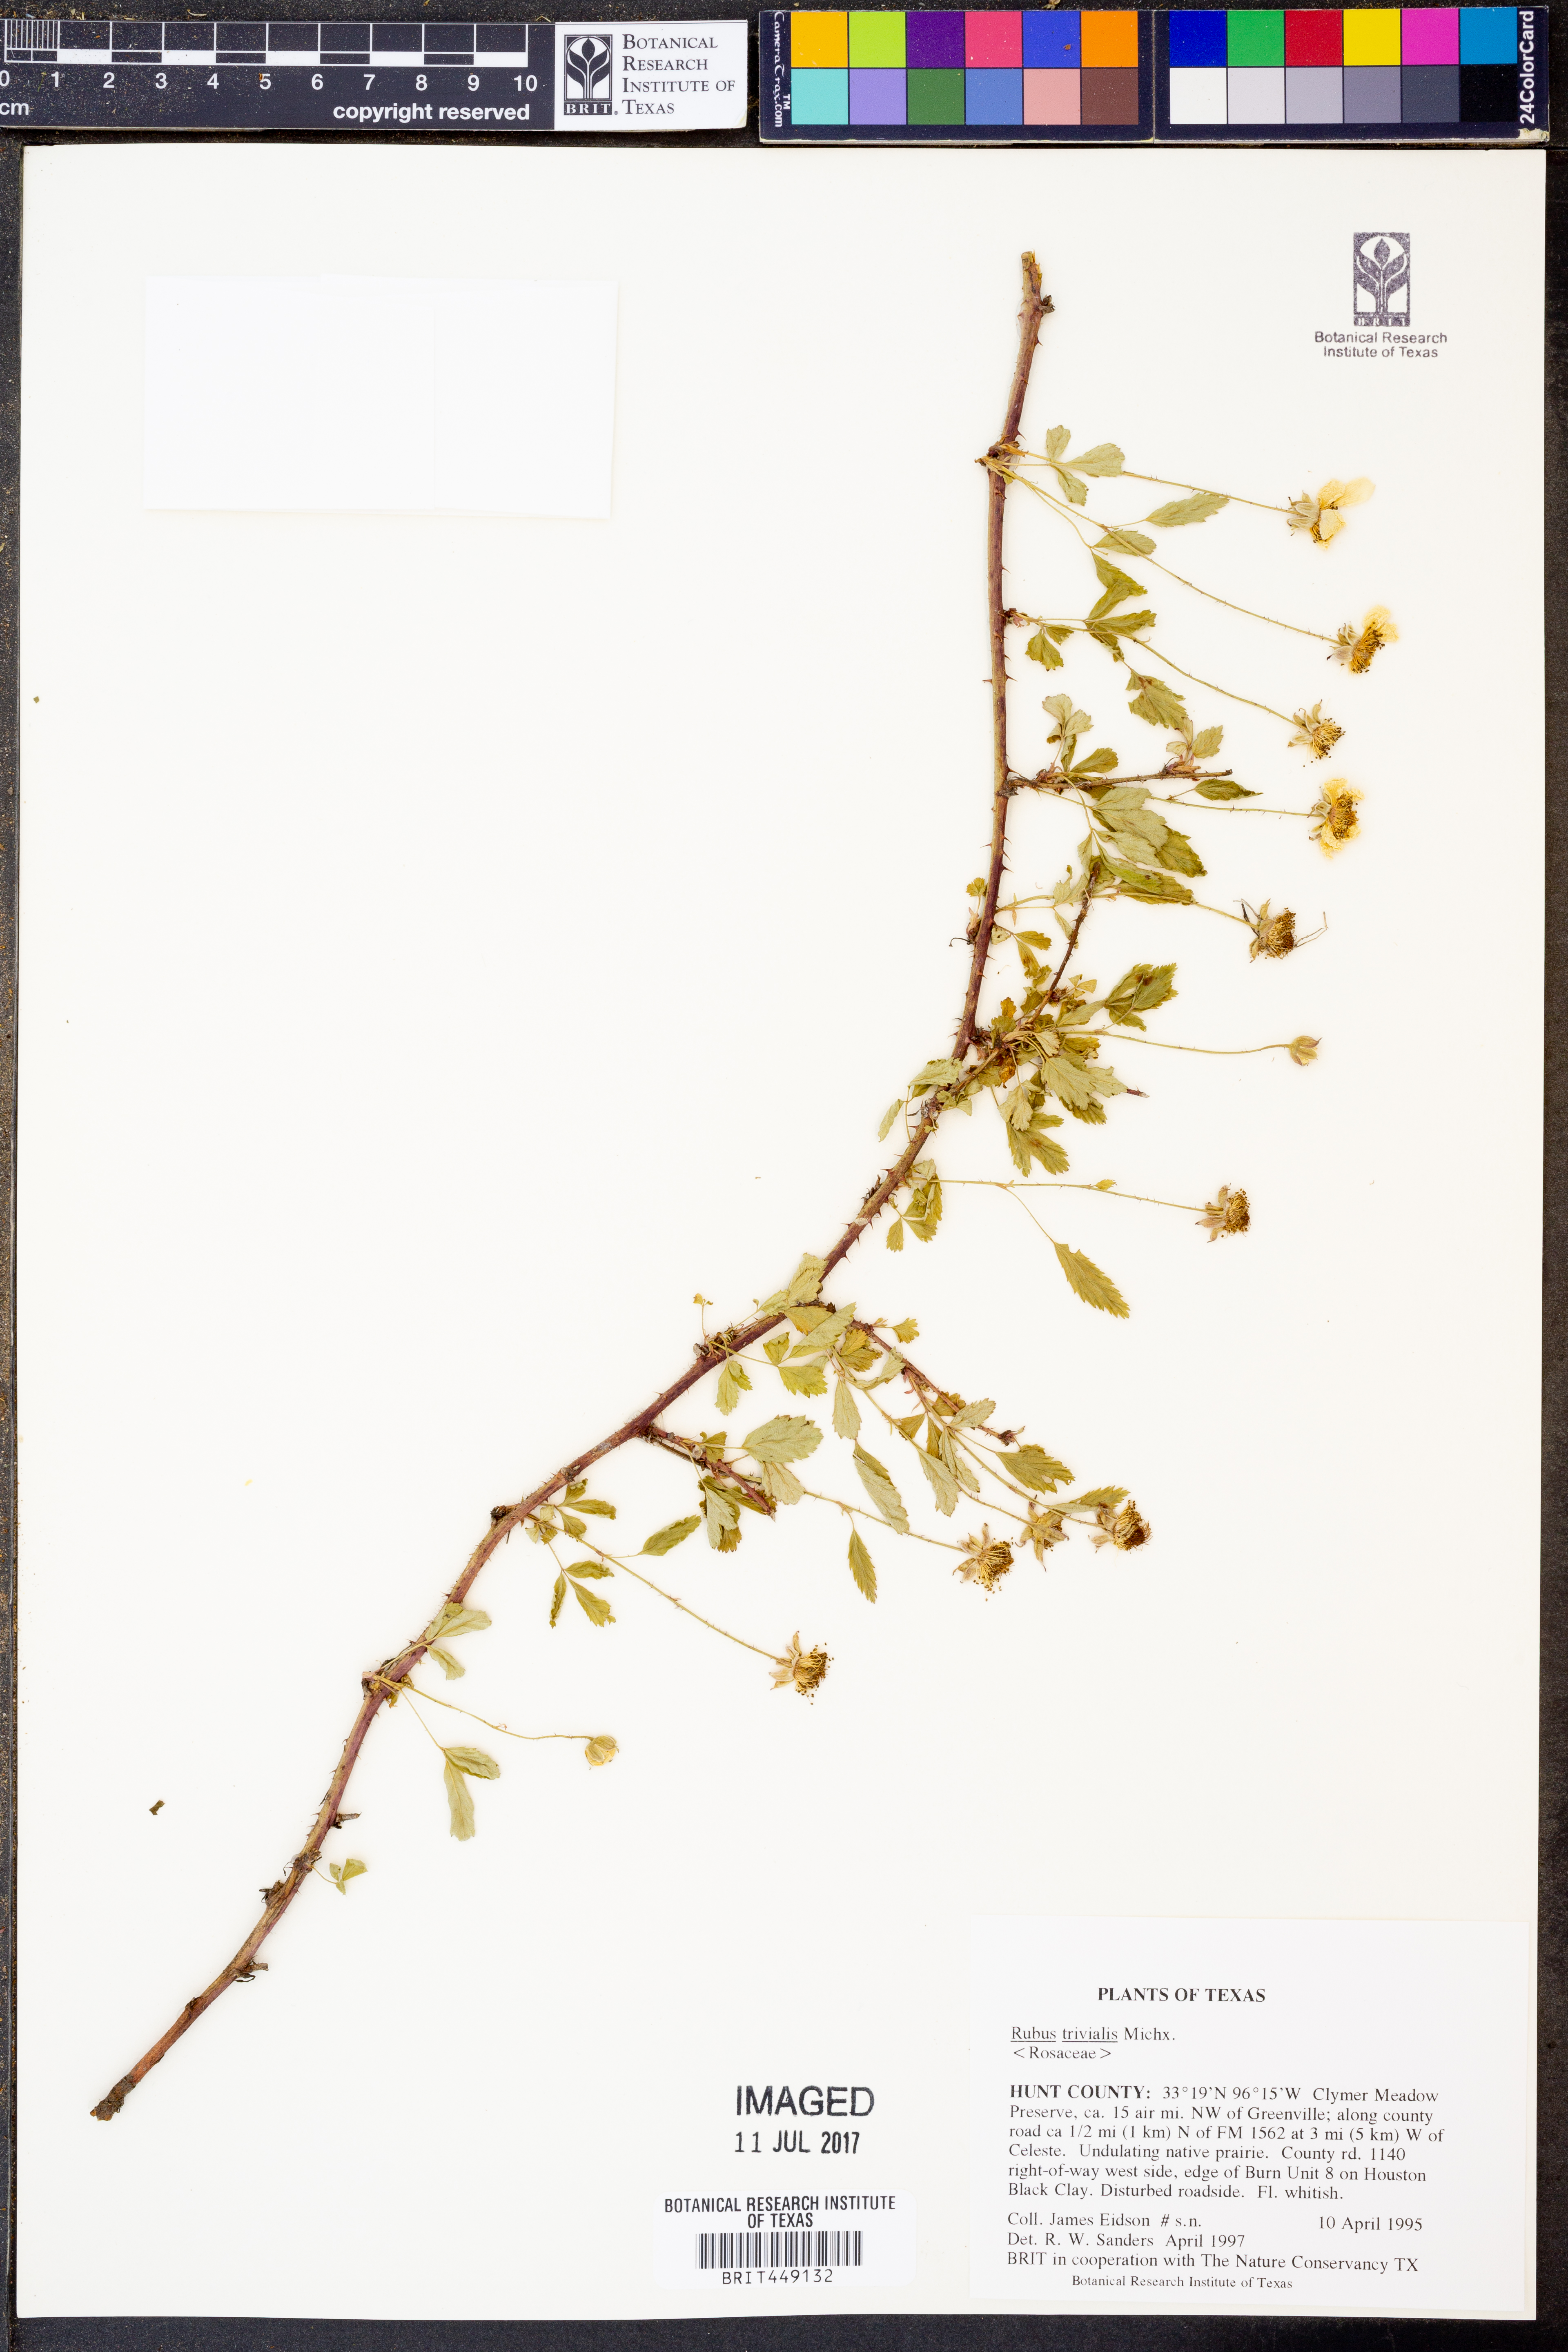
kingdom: Plantae
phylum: Tracheophyta
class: Magnoliopsida
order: Rosales
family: Rosaceae
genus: Rubus
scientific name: Rubus trivialis
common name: Southern dewberry
